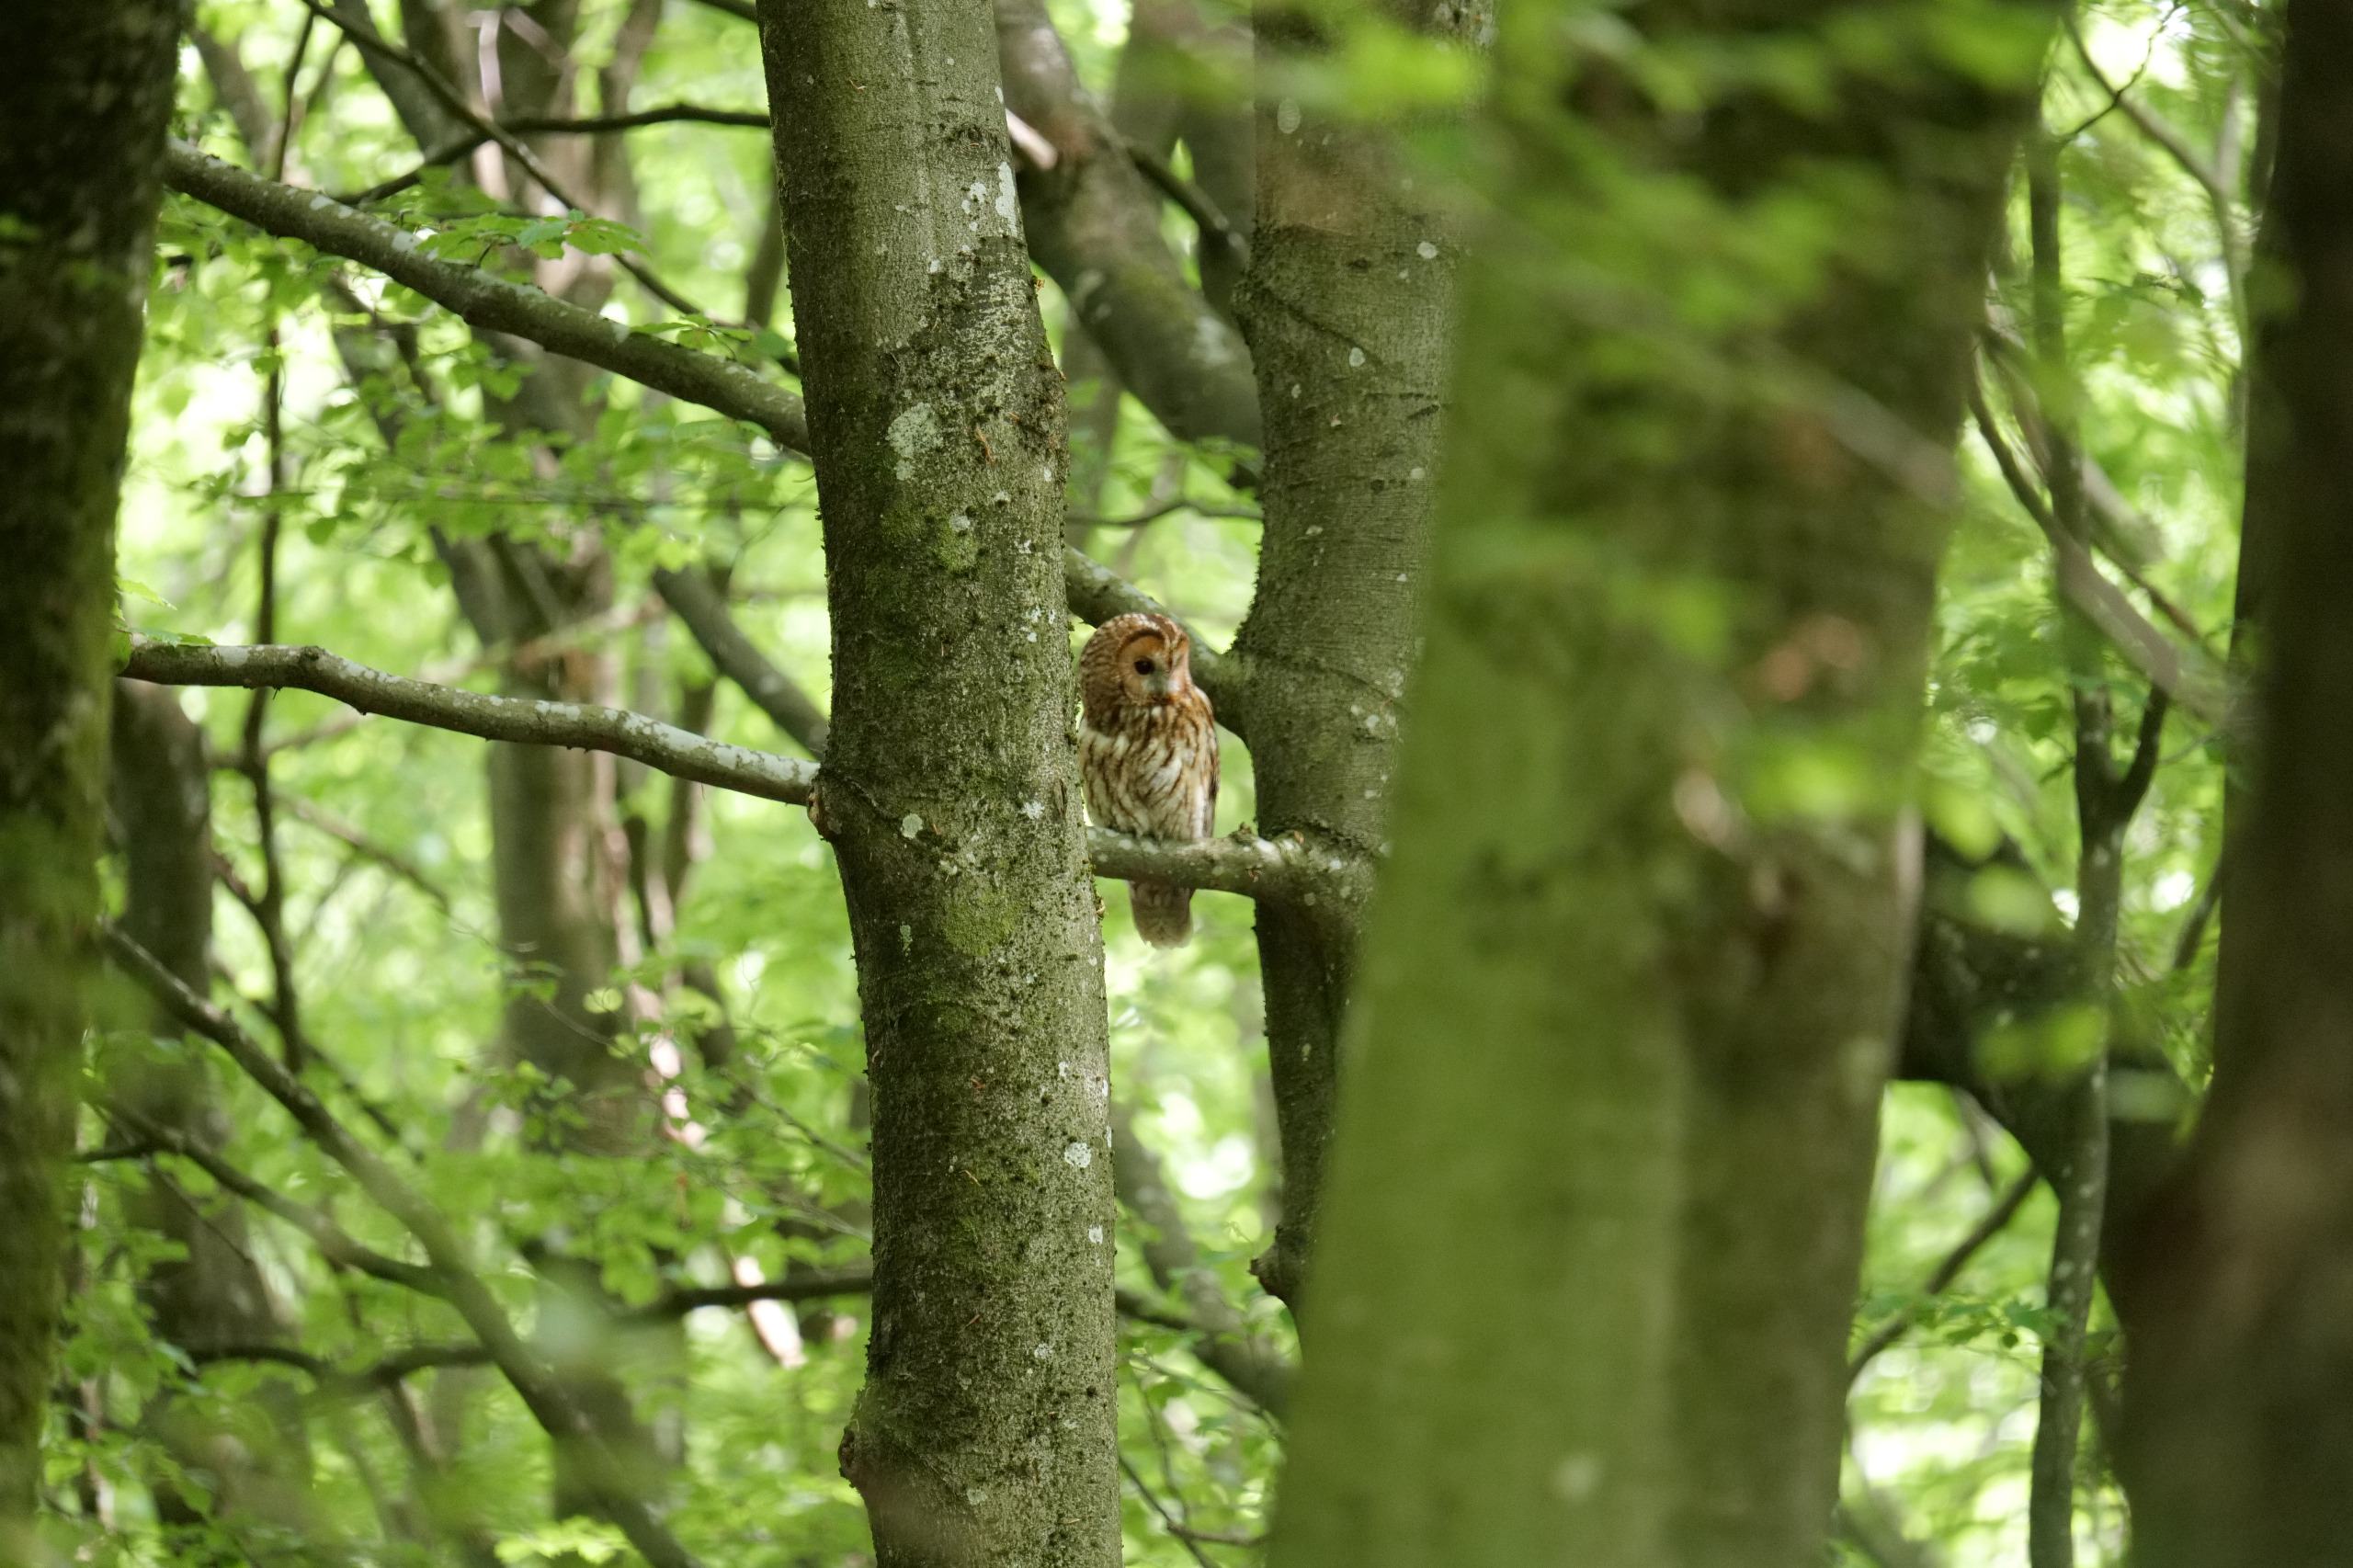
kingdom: Animalia
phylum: Chordata
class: Aves
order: Strigiformes
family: Strigidae
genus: Strix
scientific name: Strix aluco
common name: Natugle
